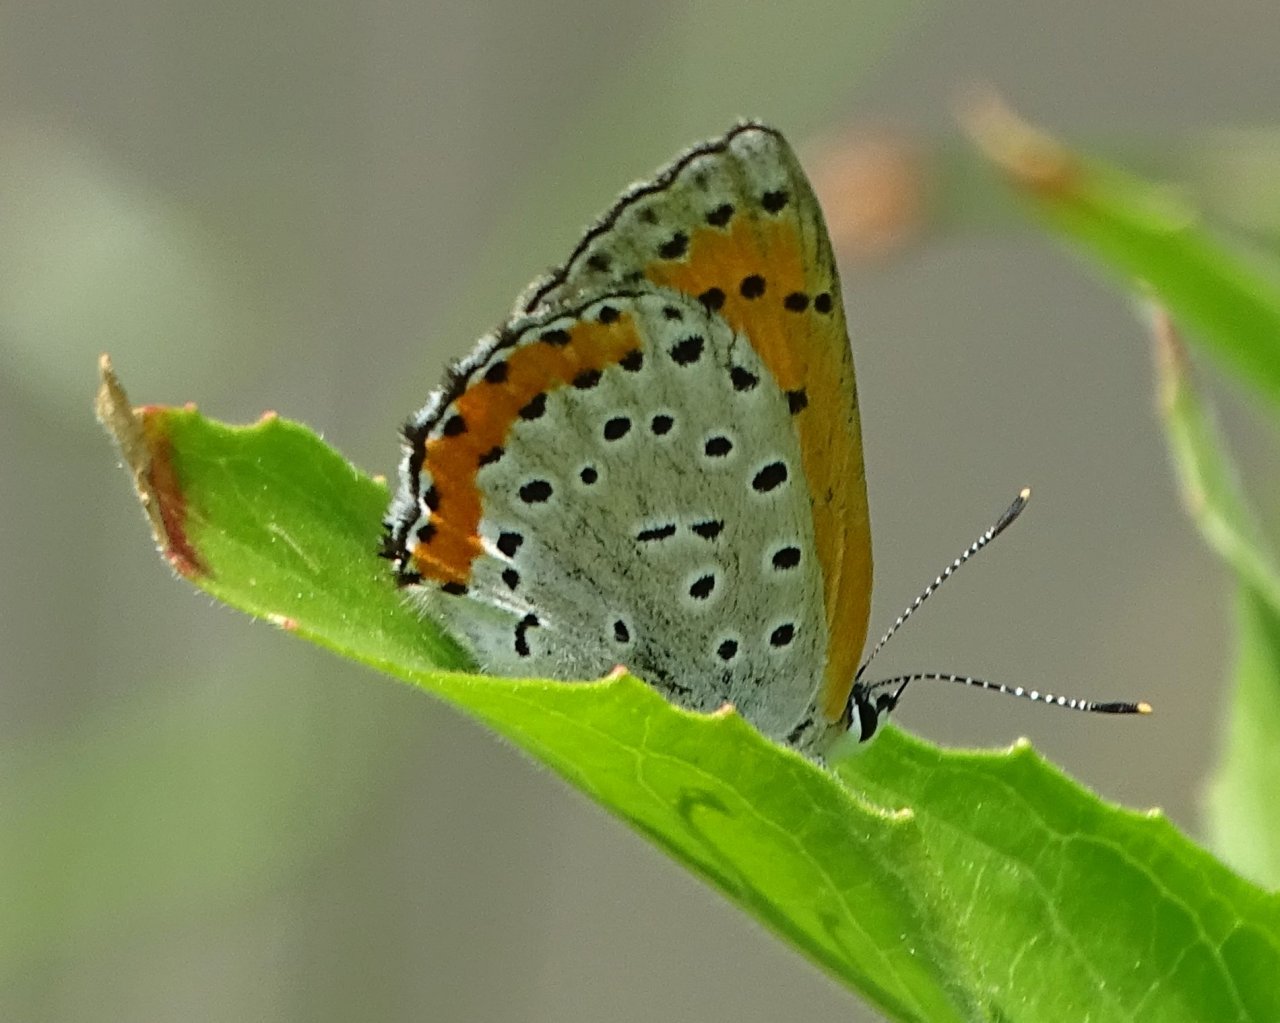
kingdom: Animalia
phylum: Arthropoda
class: Insecta
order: Lepidoptera
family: Sesiidae
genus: Sesia
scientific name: Sesia Lycaena hyllus
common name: Bronze Copper
